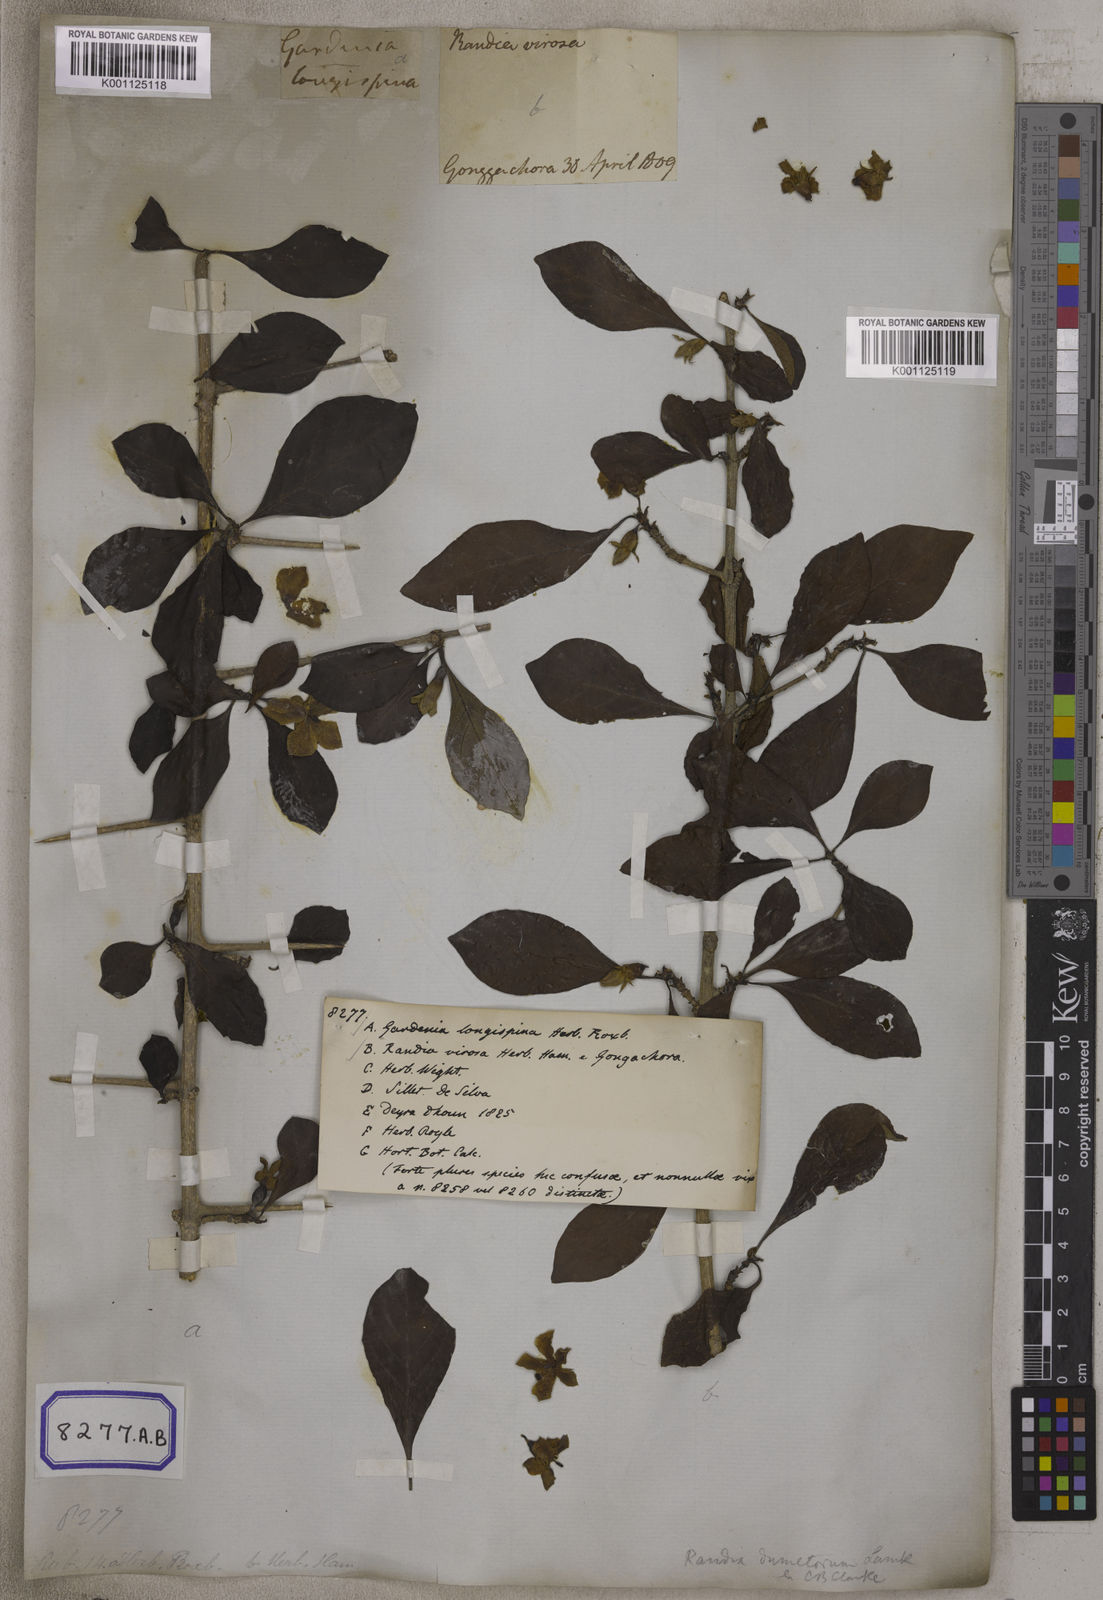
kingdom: Plantae
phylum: Tracheophyta
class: Magnoliopsida
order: Gentianales
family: Rubiaceae
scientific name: Rubiaceae
